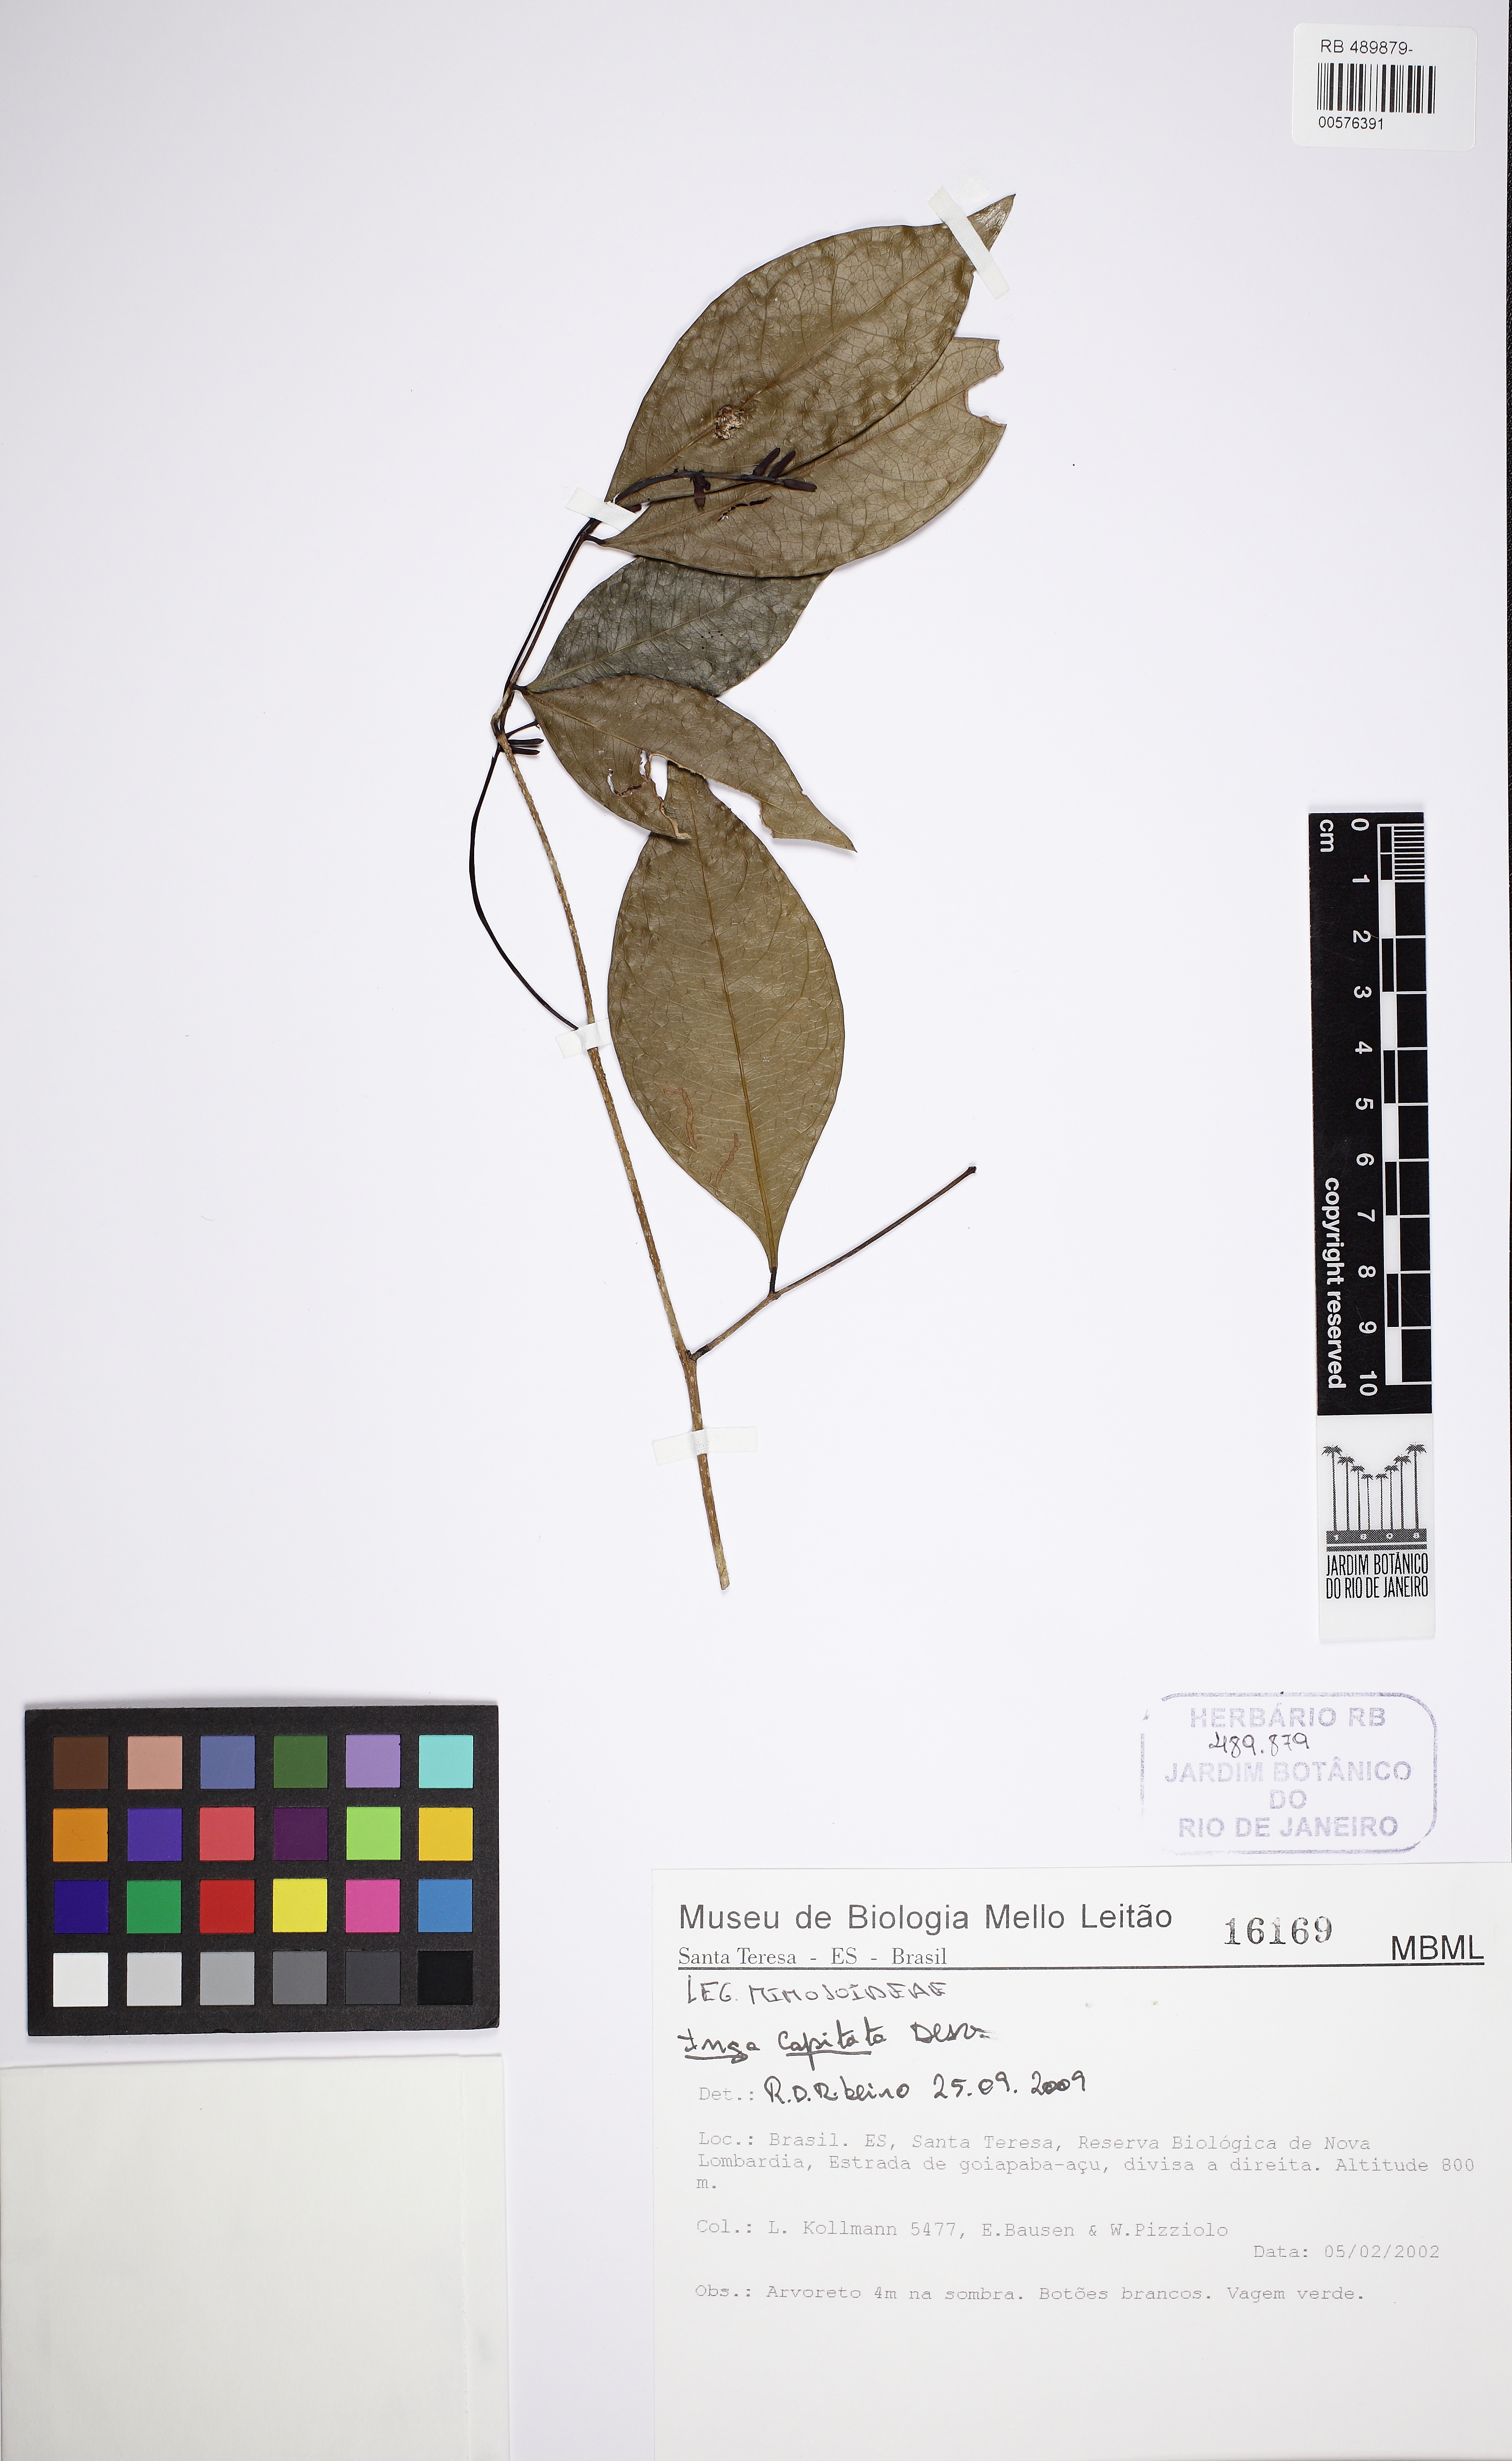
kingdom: Plantae
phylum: Tracheophyta
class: Magnoliopsida
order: Fabales
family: Fabaceae
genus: Inga
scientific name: Inga capitata
